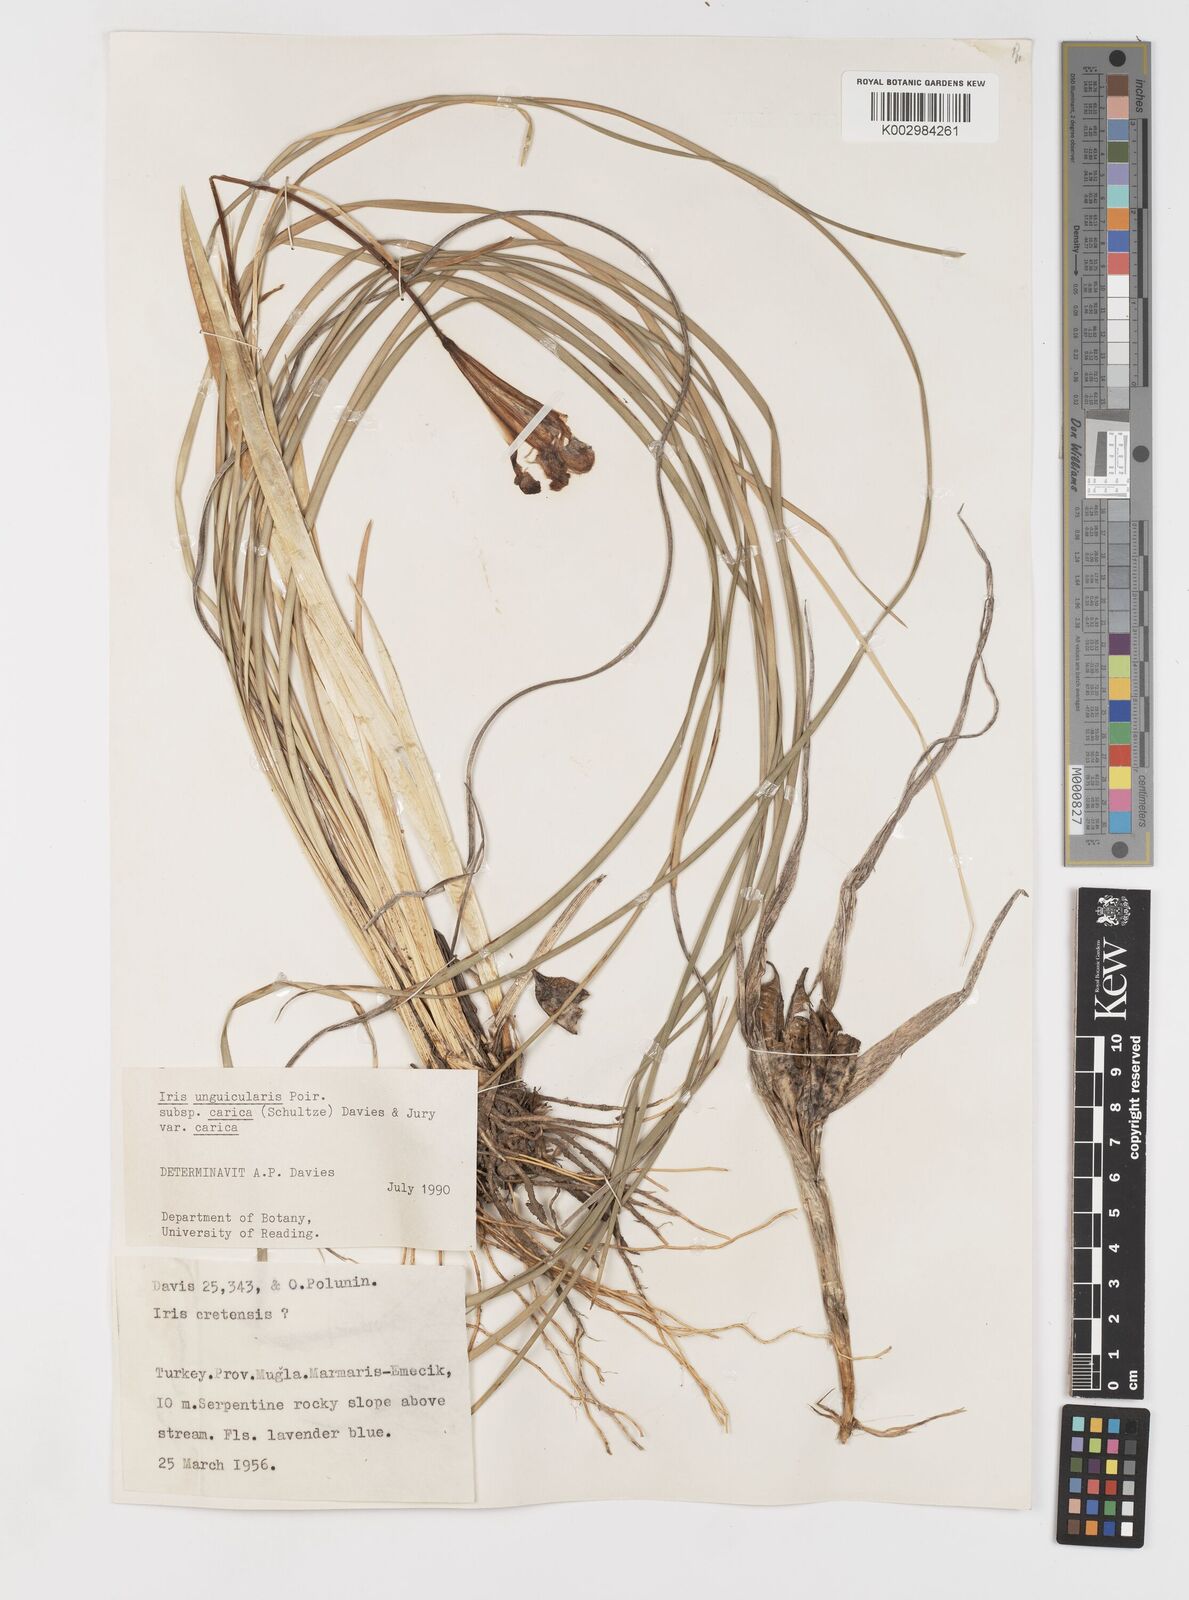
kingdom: Plantae
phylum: Tracheophyta
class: Liliopsida
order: Asparagales
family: Iridaceae
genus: Iris
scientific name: Iris unguicularis
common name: Algerian iris
